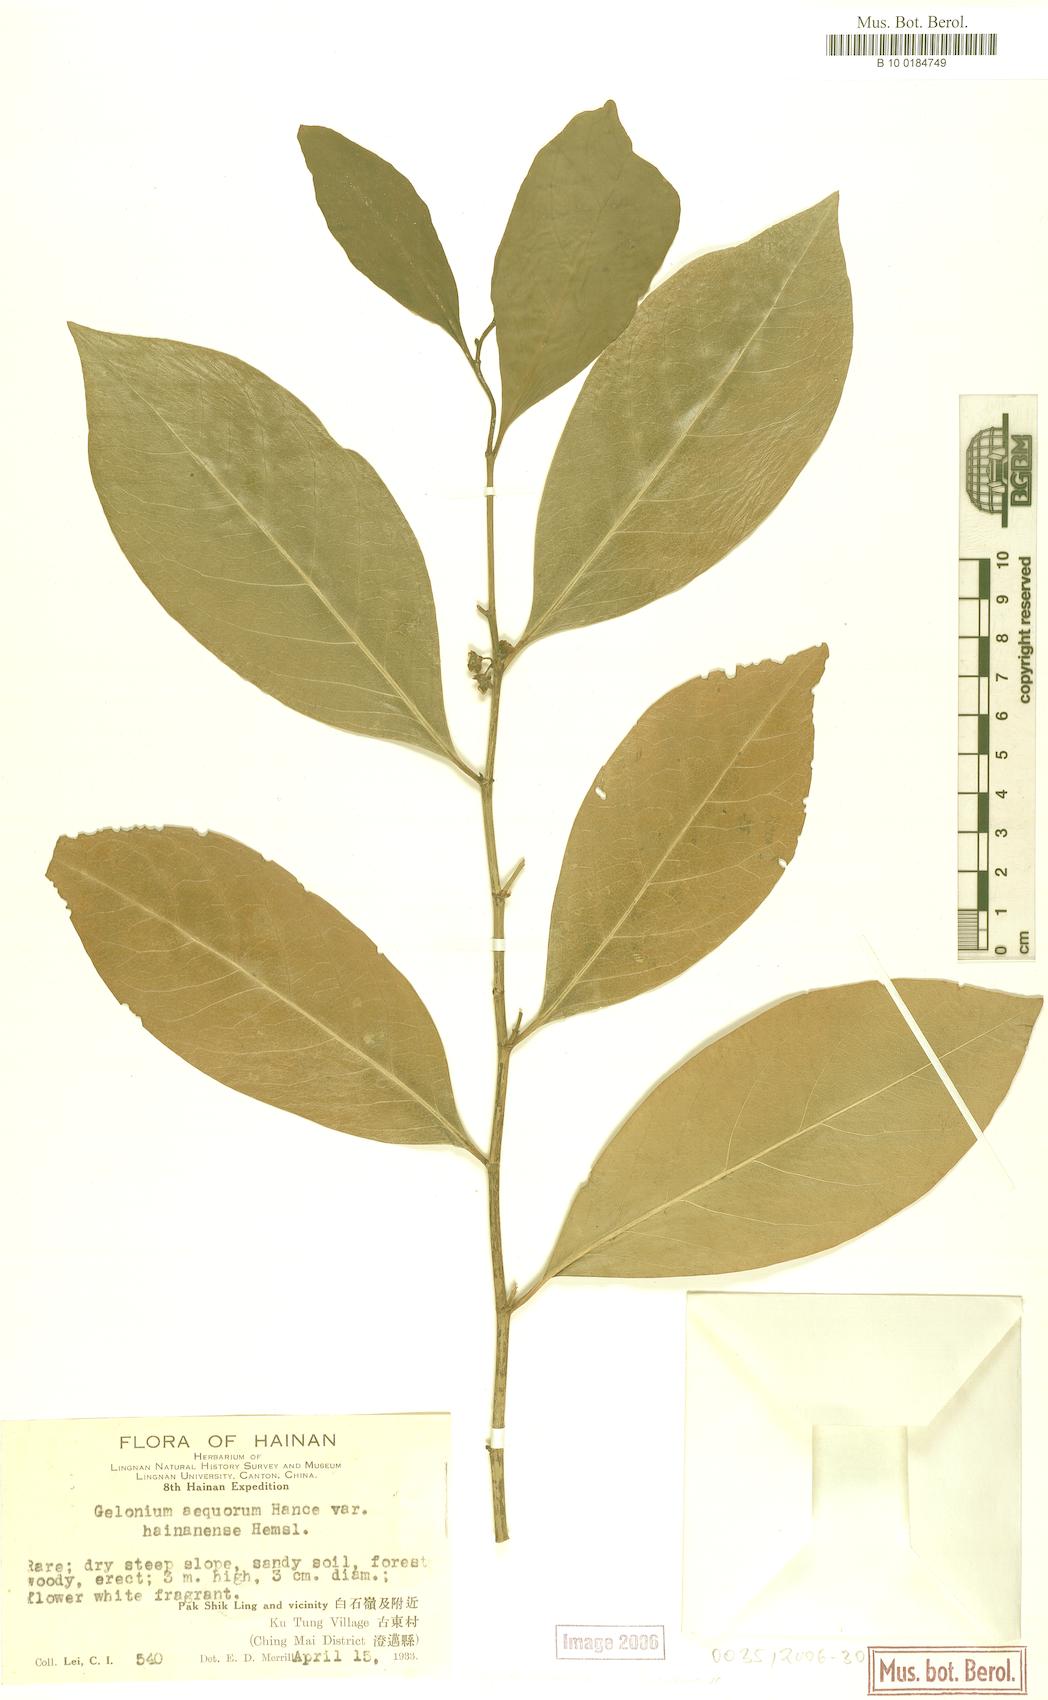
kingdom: Plantae
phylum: Tracheophyta
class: Magnoliopsida
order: Malpighiales
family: Euphorbiaceae
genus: Suregada
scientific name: Suregada multiflora
